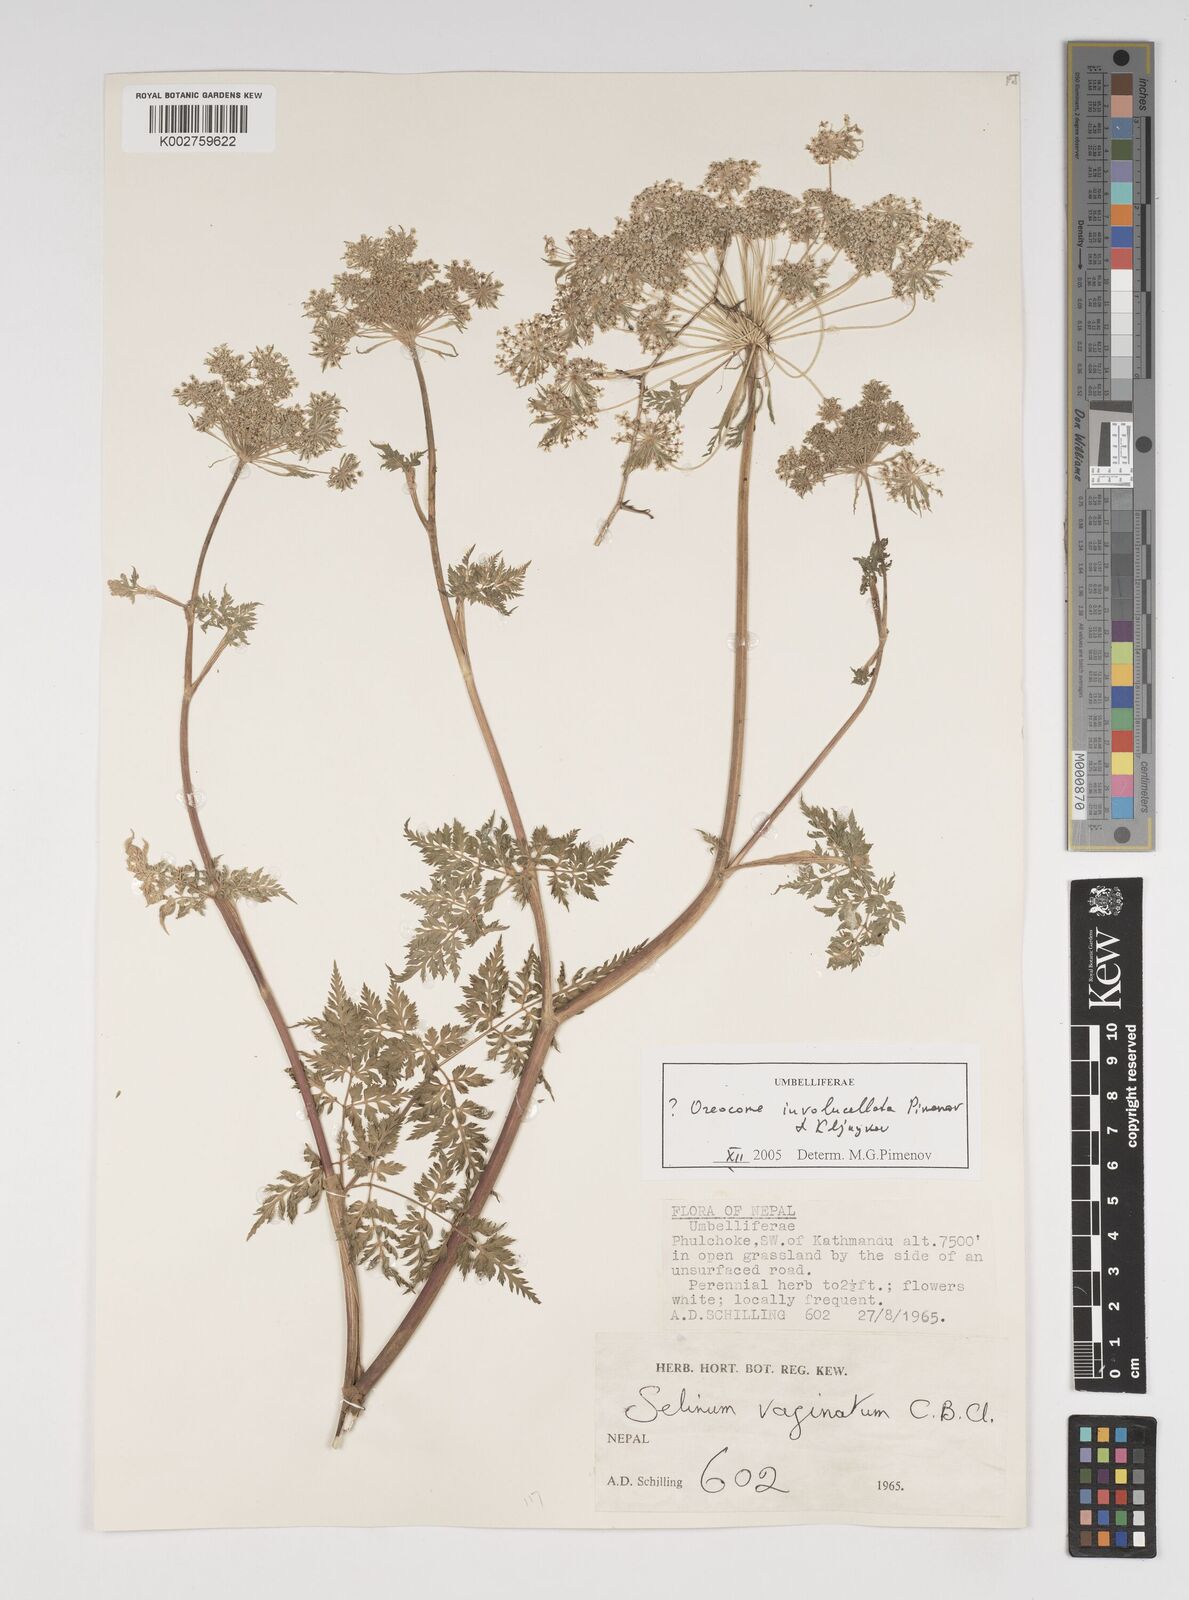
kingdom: Plantae
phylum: Tracheophyta
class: Magnoliopsida
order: Apiales
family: Apiaceae
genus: Selinum
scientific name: Selinum vaginatum
